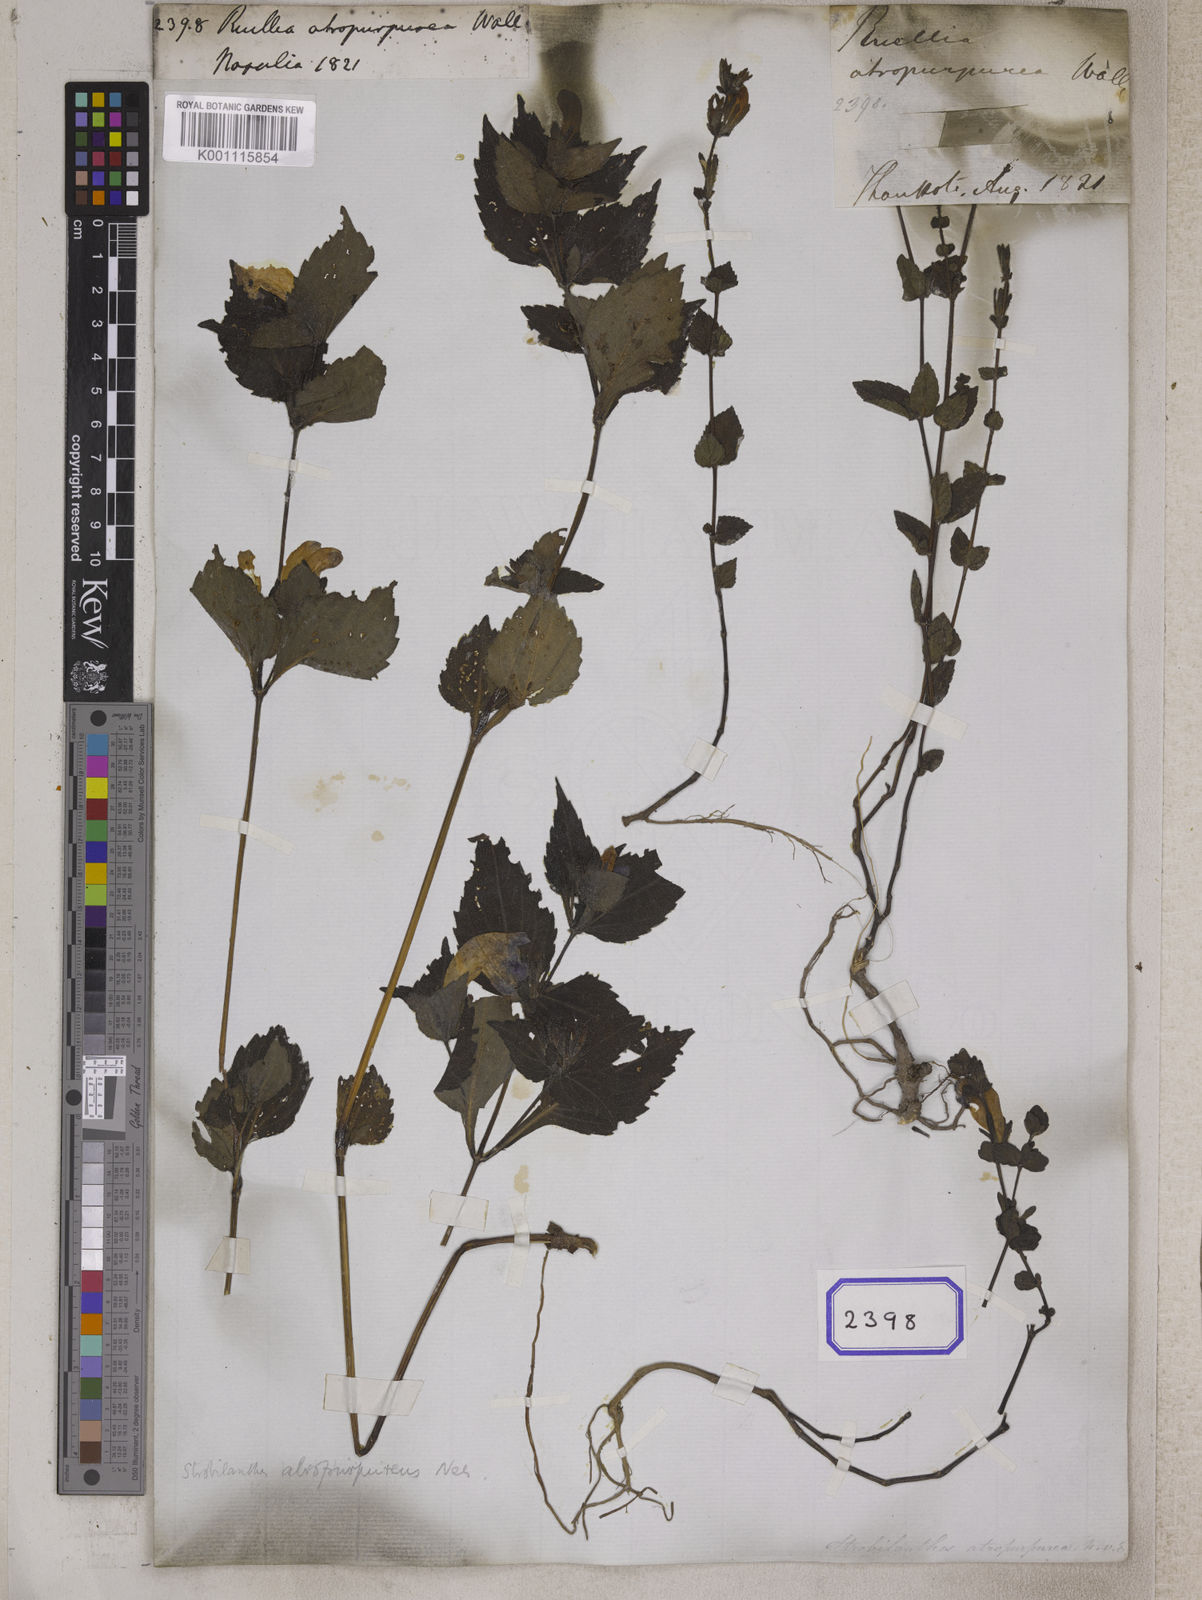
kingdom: Plantae
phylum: Tracheophyta
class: Magnoliopsida
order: Lamiales
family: Acanthaceae
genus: Strobilanthes
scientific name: Strobilanthes atropurpurea
